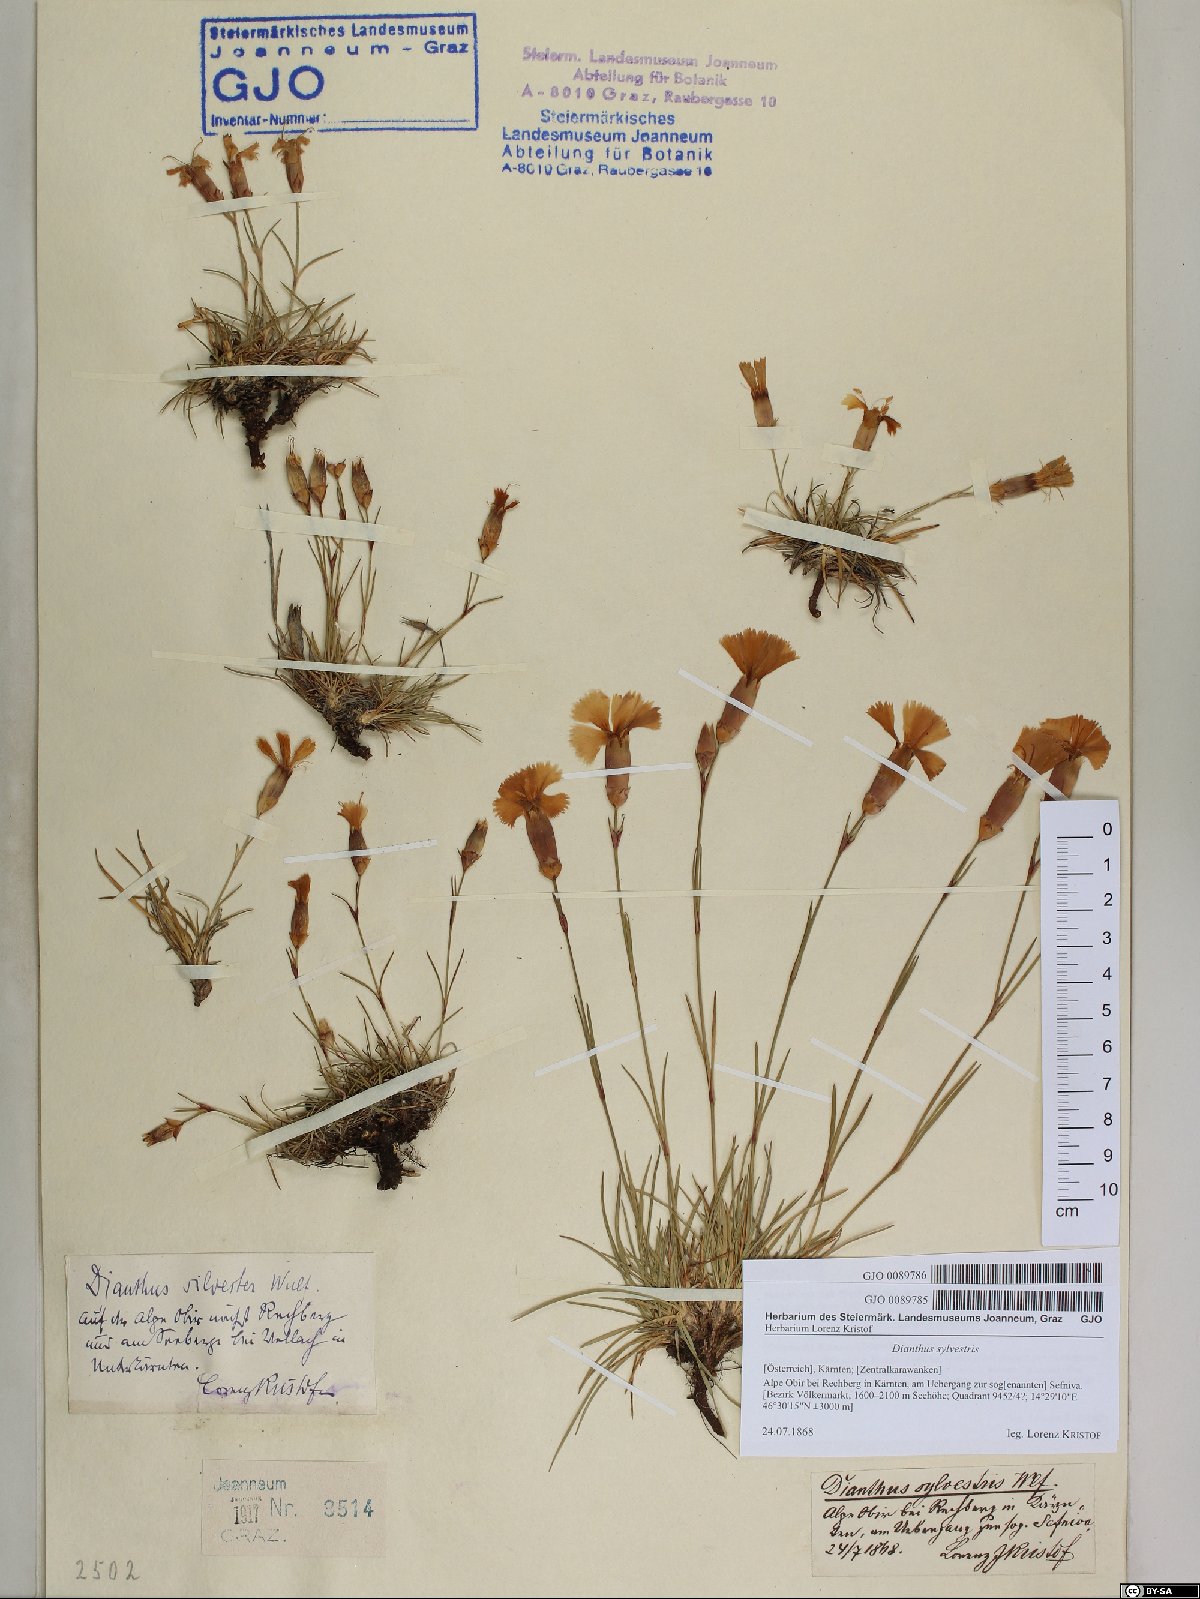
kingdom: Plantae
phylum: Tracheophyta
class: Magnoliopsida
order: Caryophyllales
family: Caryophyllaceae
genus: Dianthus
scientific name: Dianthus sylvestris
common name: Wood pink
